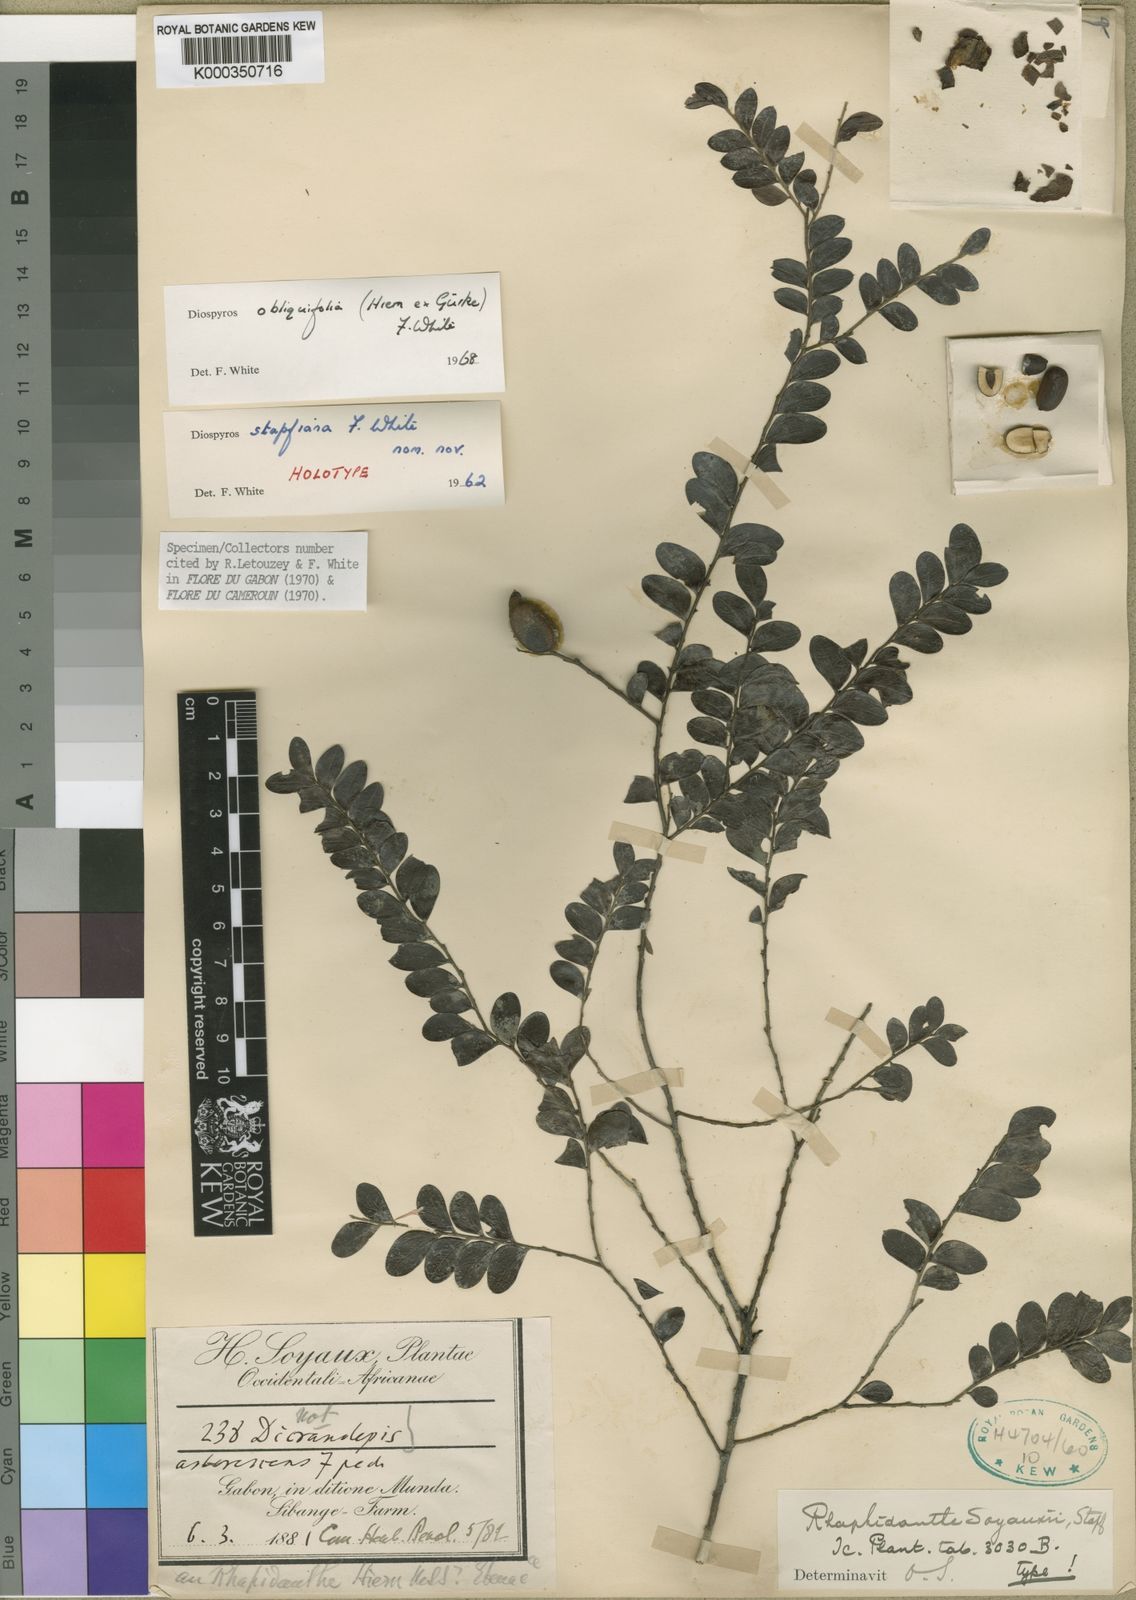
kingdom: Plantae
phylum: Tracheophyta
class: Magnoliopsida
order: Ericales
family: Ebenaceae
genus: Diospyros
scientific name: Diospyros
